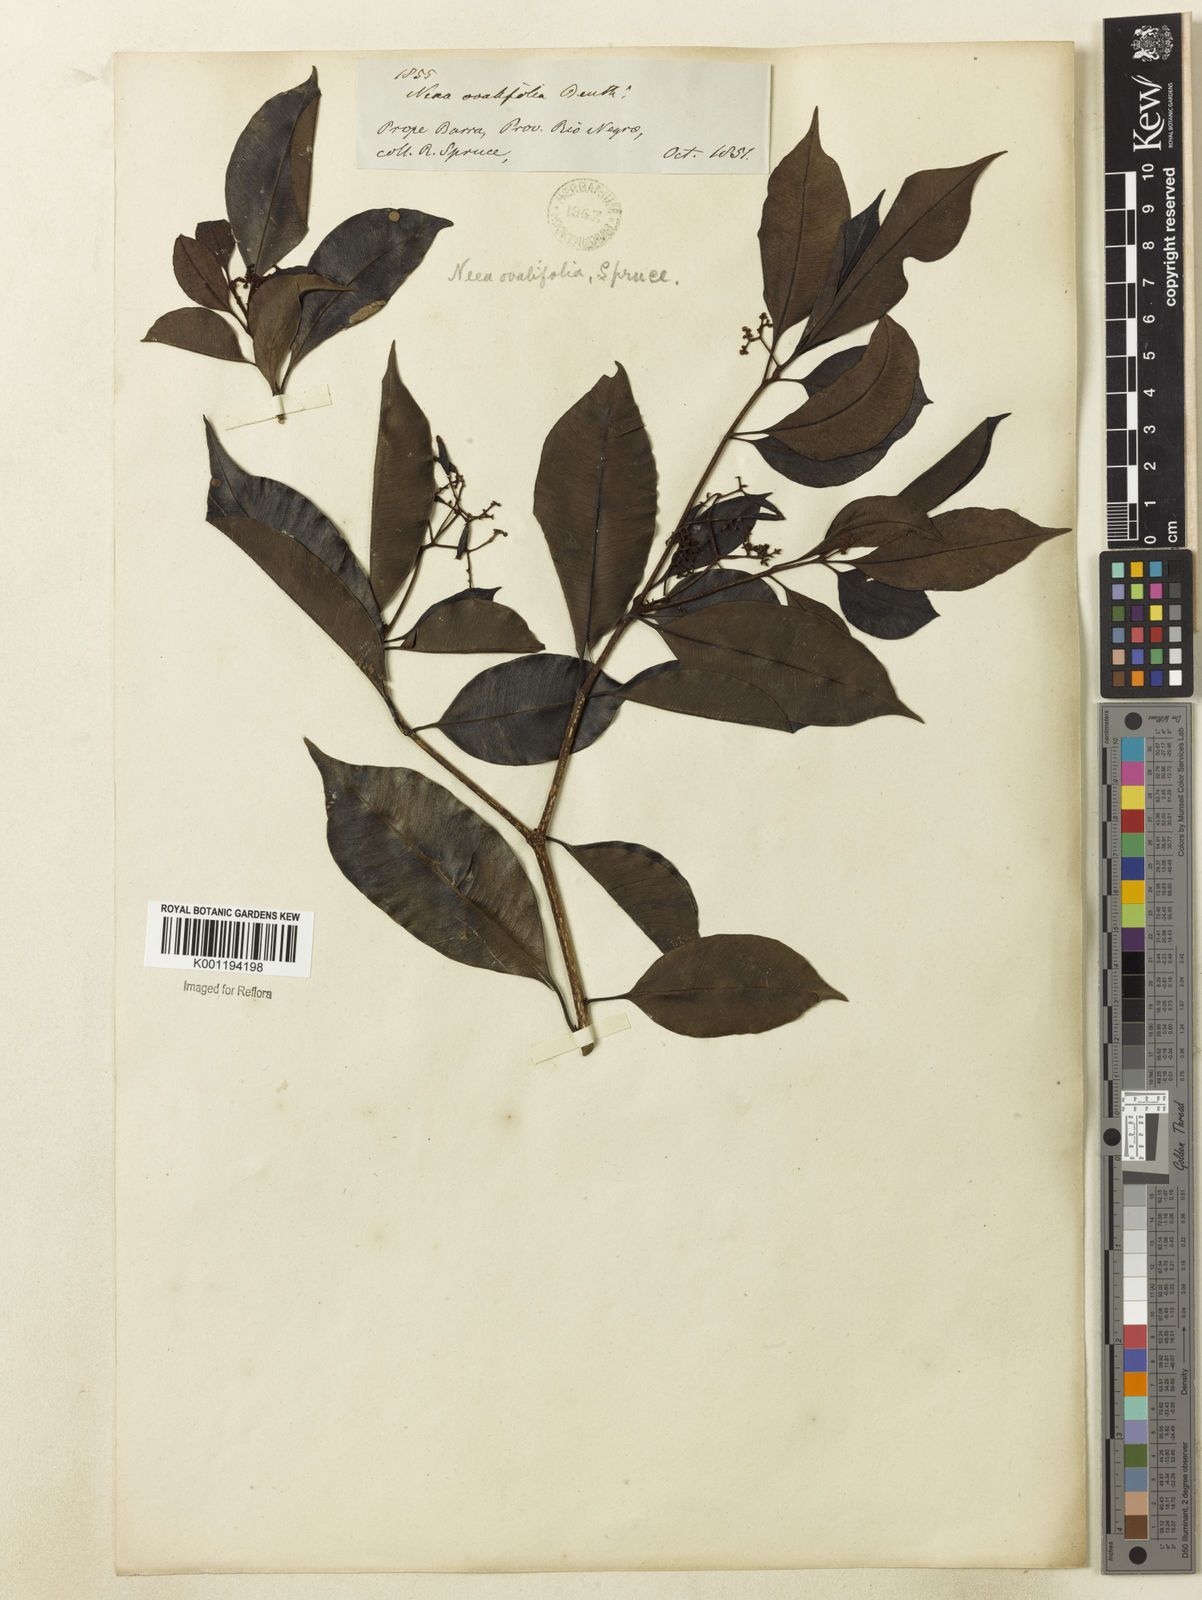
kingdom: Plantae
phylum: Tracheophyta
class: Magnoliopsida
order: Caryophyllales
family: Nyctaginaceae
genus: Neea
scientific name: Neea ovalifolia
